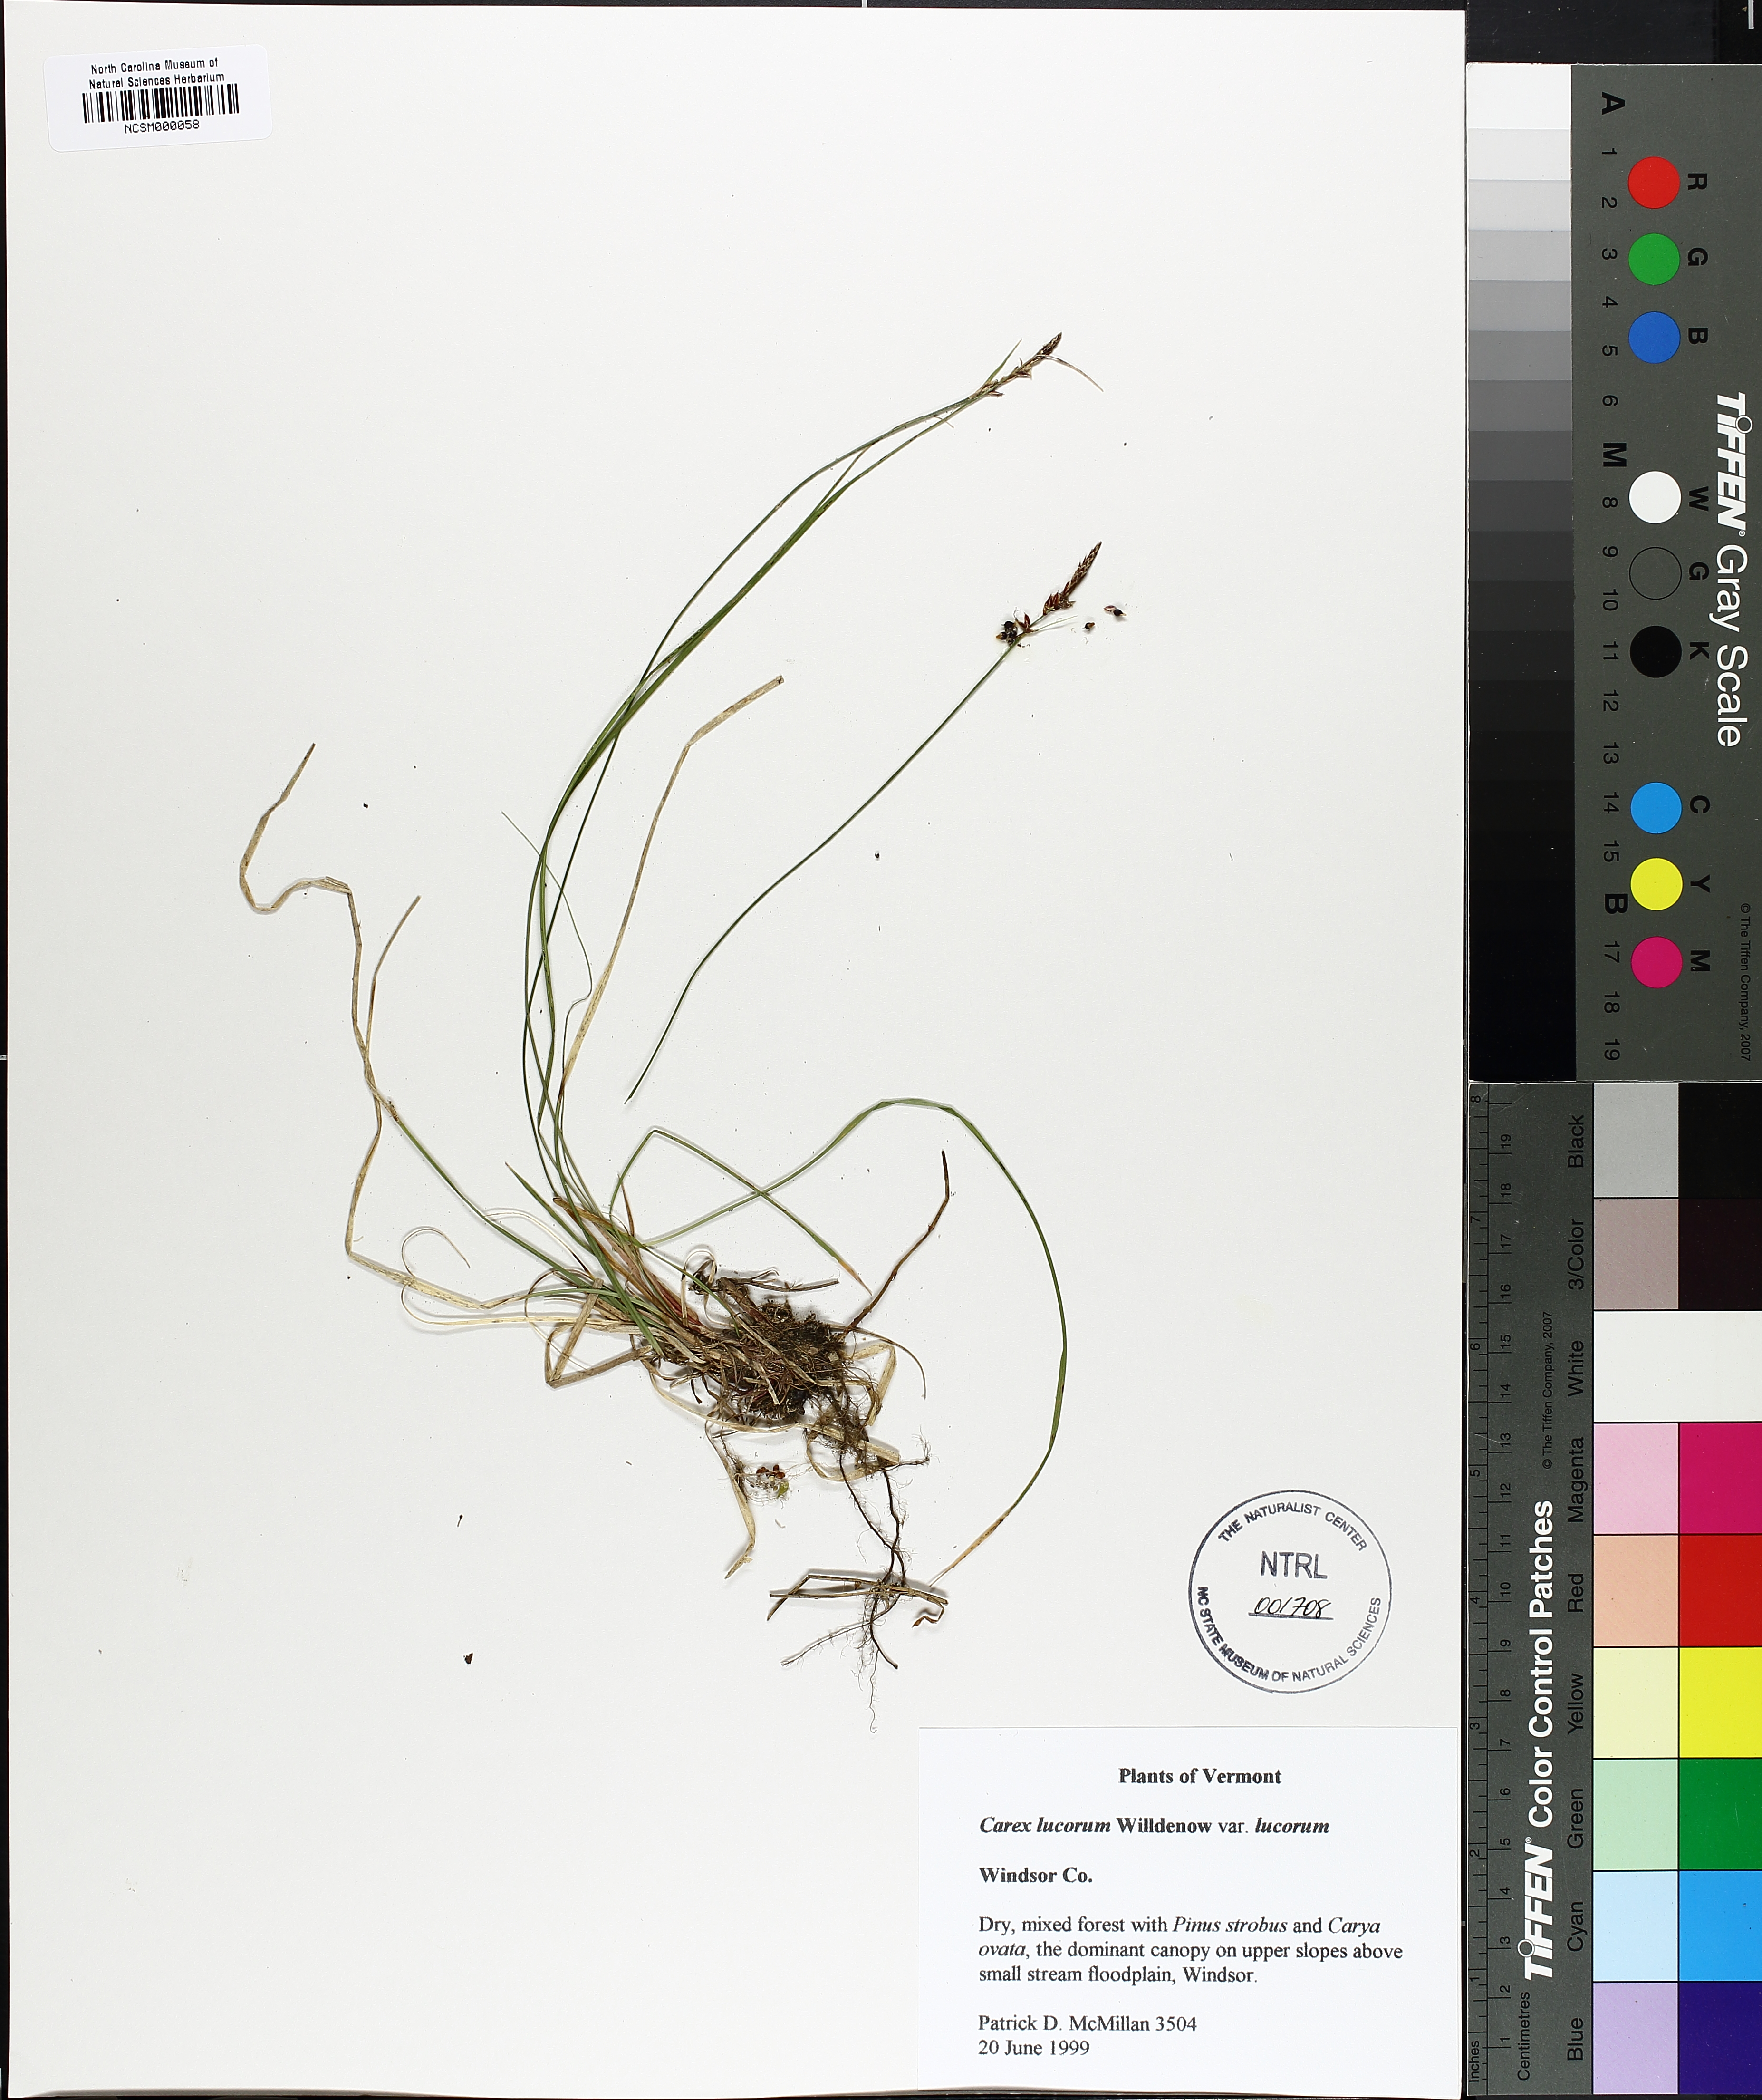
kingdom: Plantae
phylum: Tracheophyta
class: Liliopsida
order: Poales
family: Cyperaceae
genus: Carex
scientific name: Carex lucorum
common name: Blue ridge sedge
